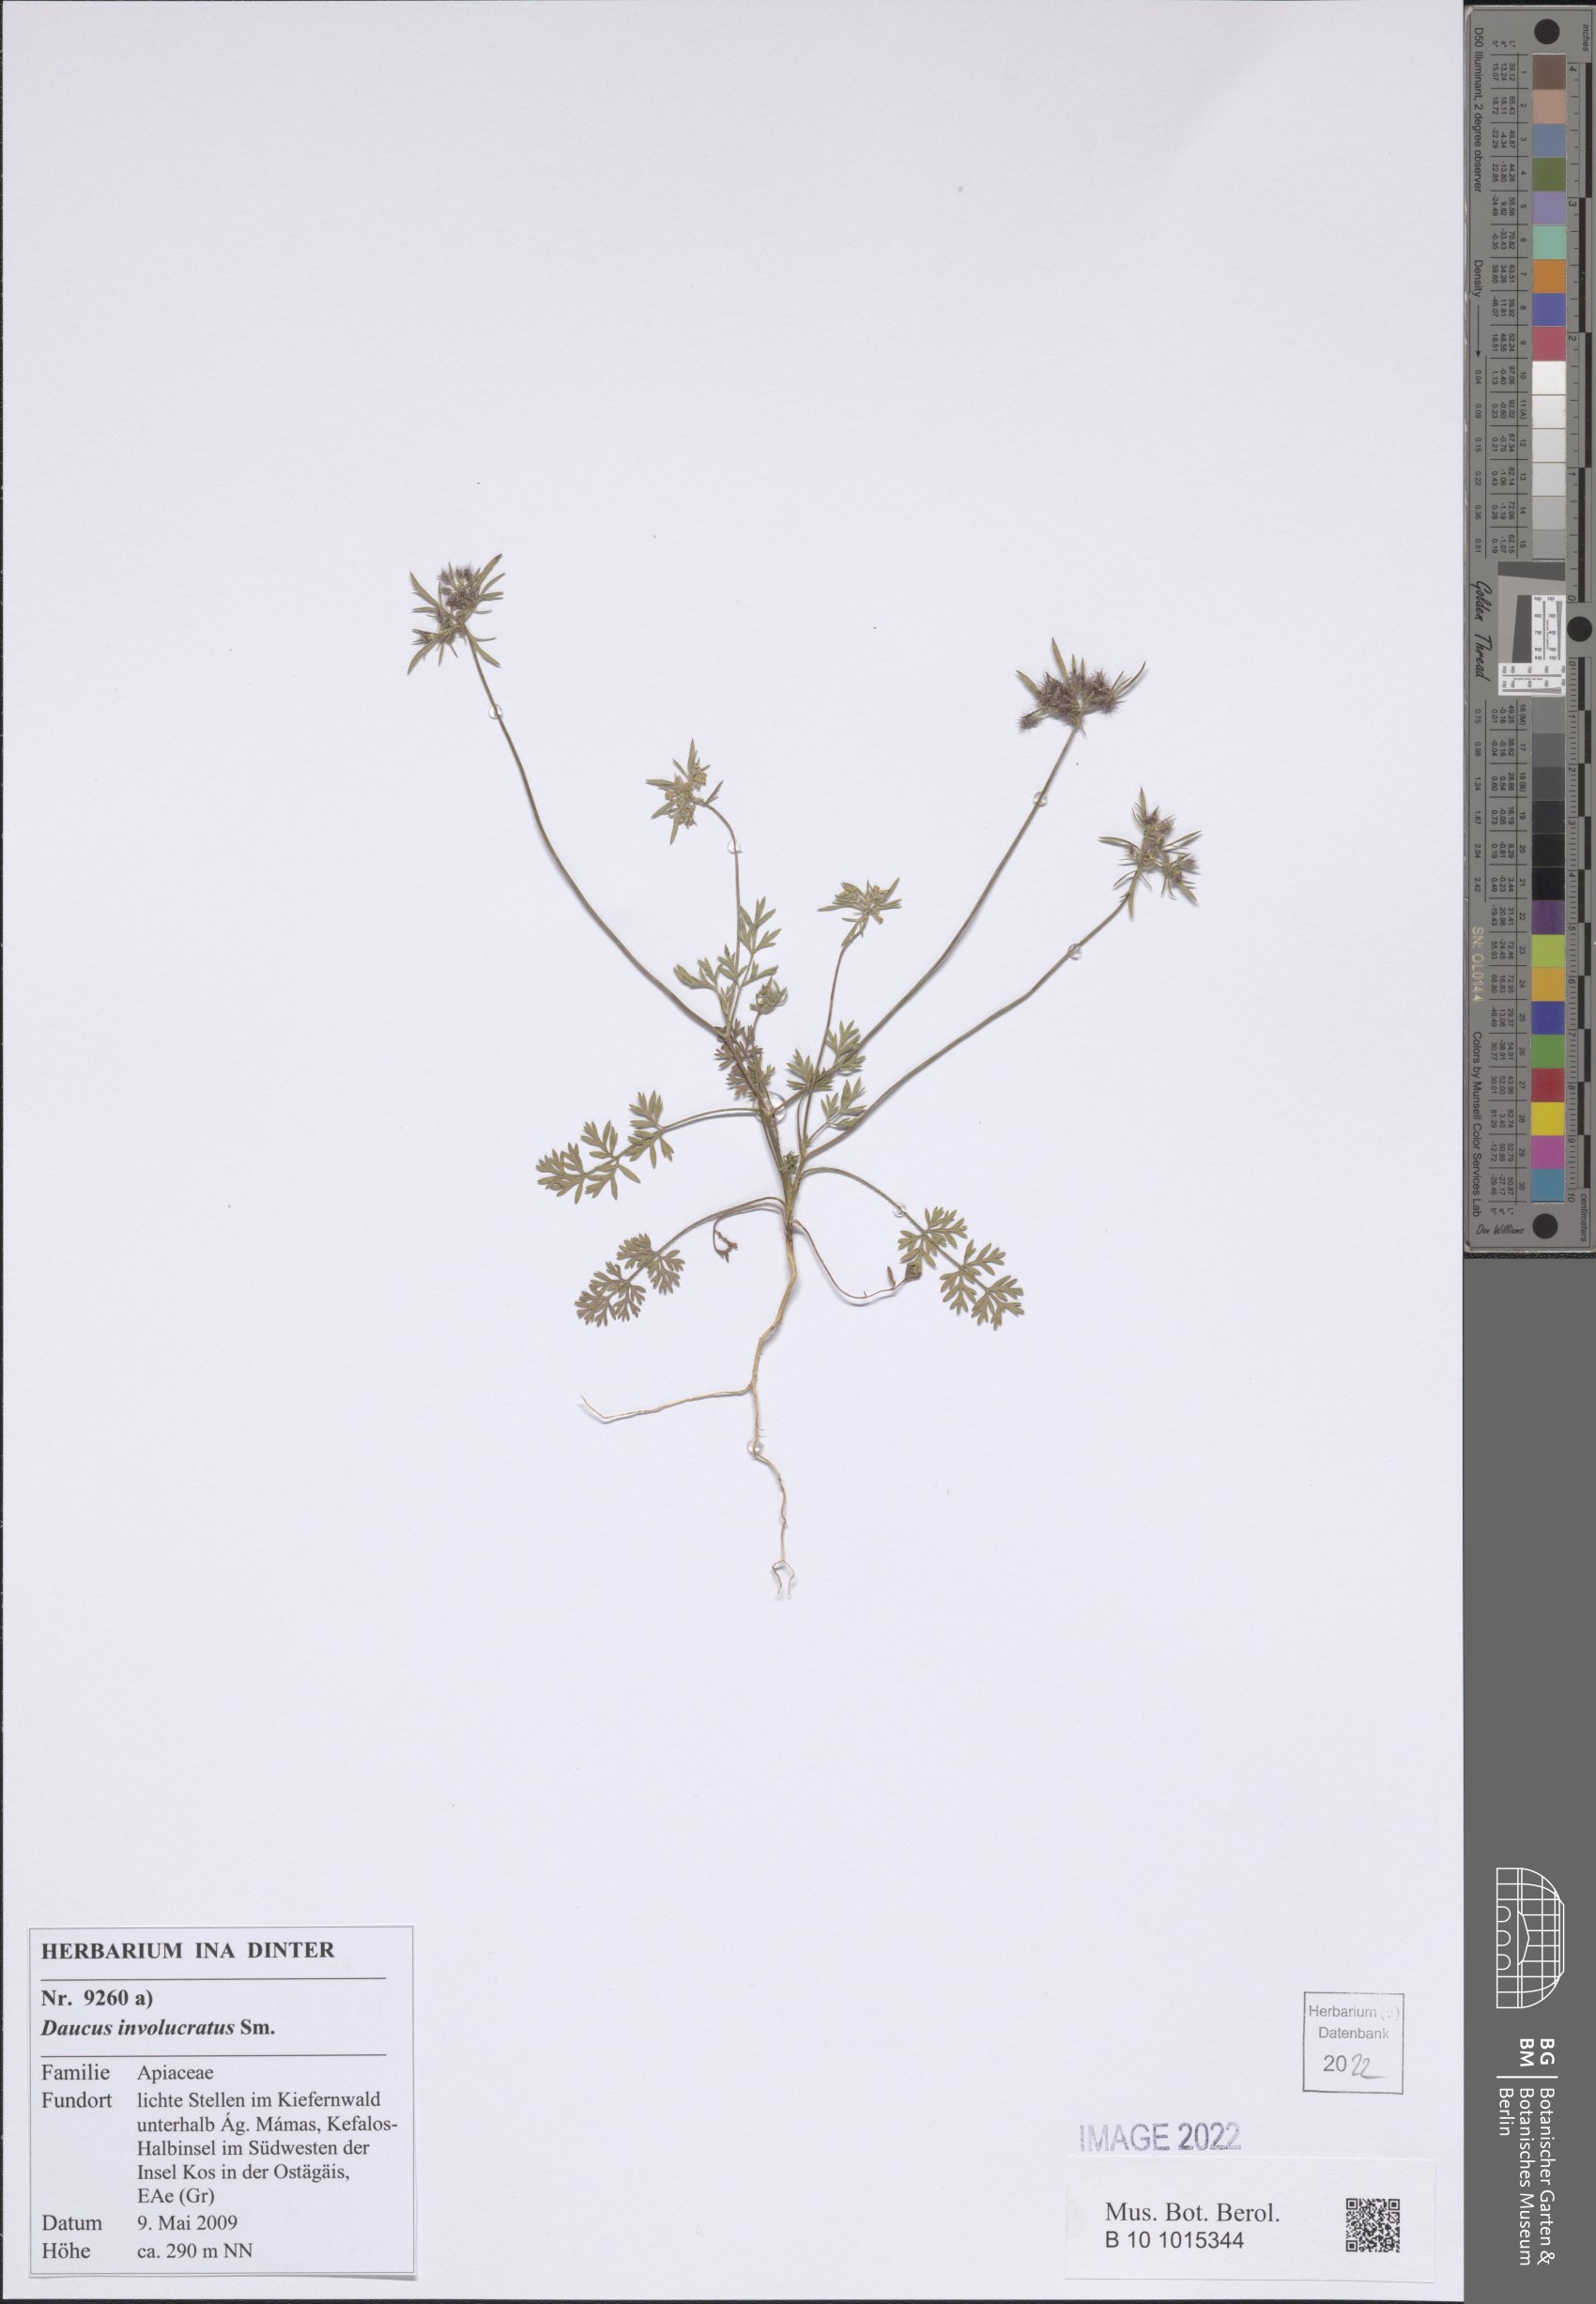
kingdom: Plantae
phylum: Tracheophyta
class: Magnoliopsida
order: Apiales
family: Apiaceae
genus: Daucus
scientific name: Daucus involucratus
